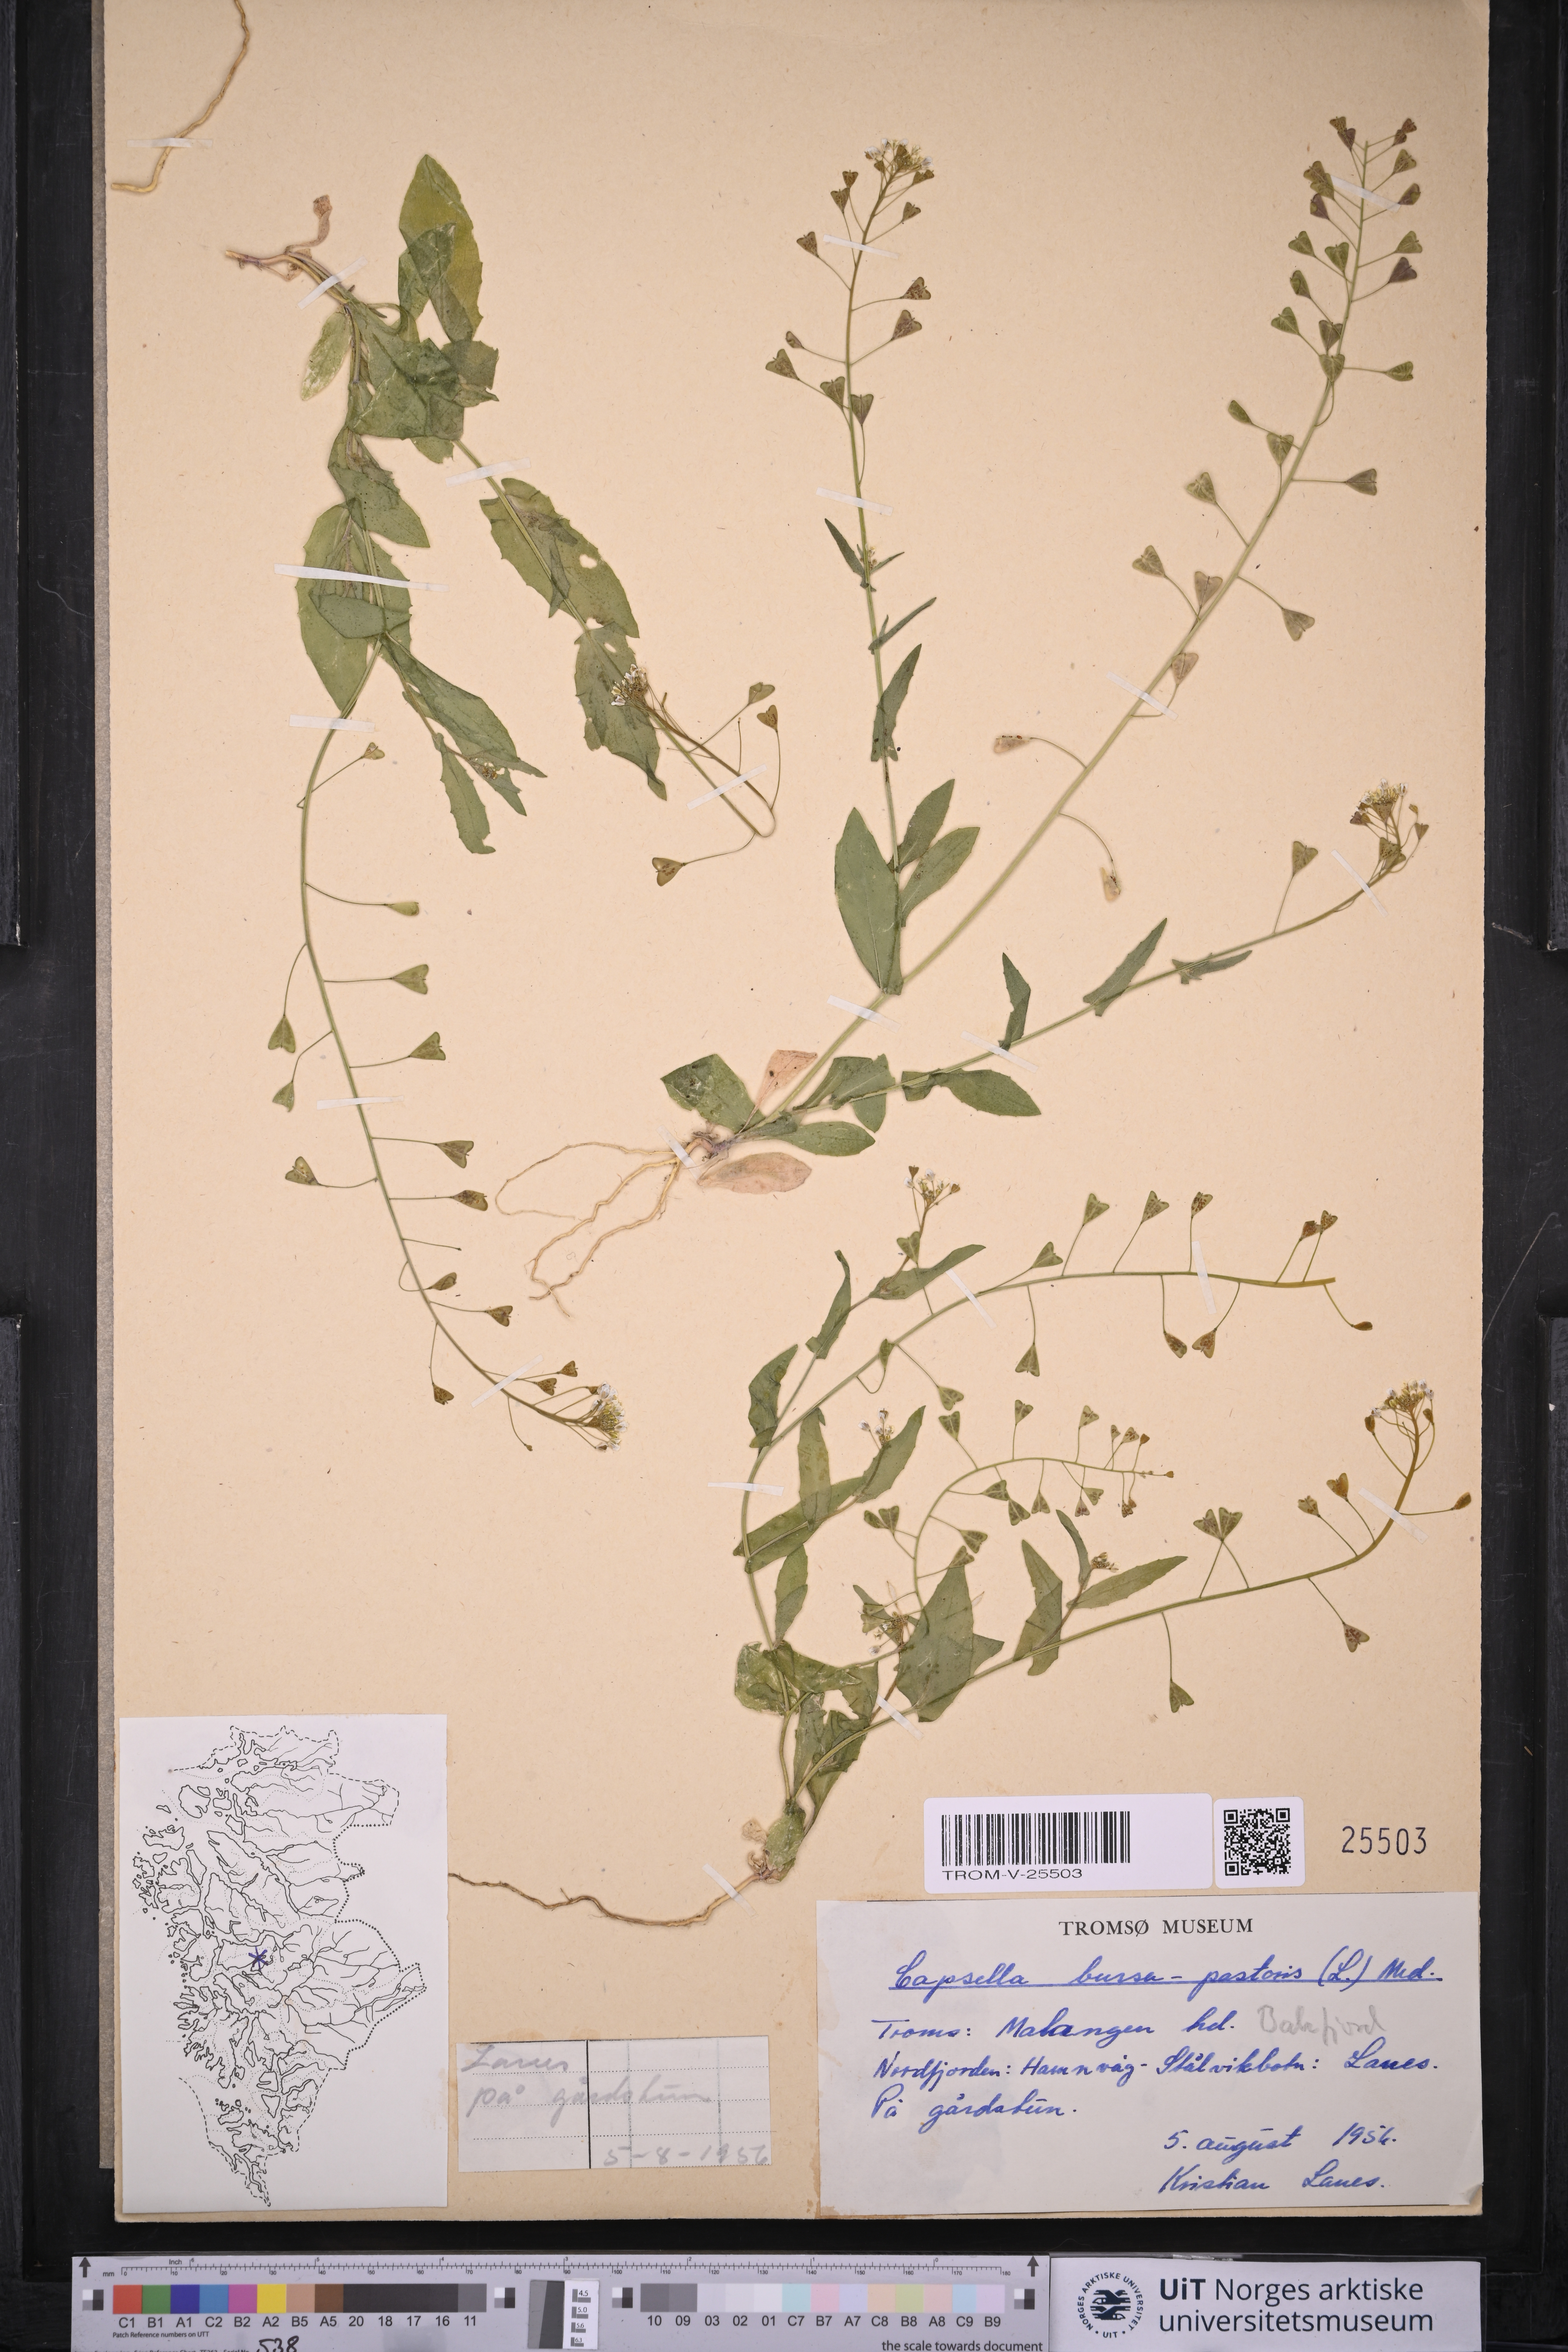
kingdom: Plantae
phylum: Tracheophyta
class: Magnoliopsida
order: Brassicales
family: Brassicaceae
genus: Capsella
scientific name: Capsella bursa-pastoris
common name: Shepherd's purse
